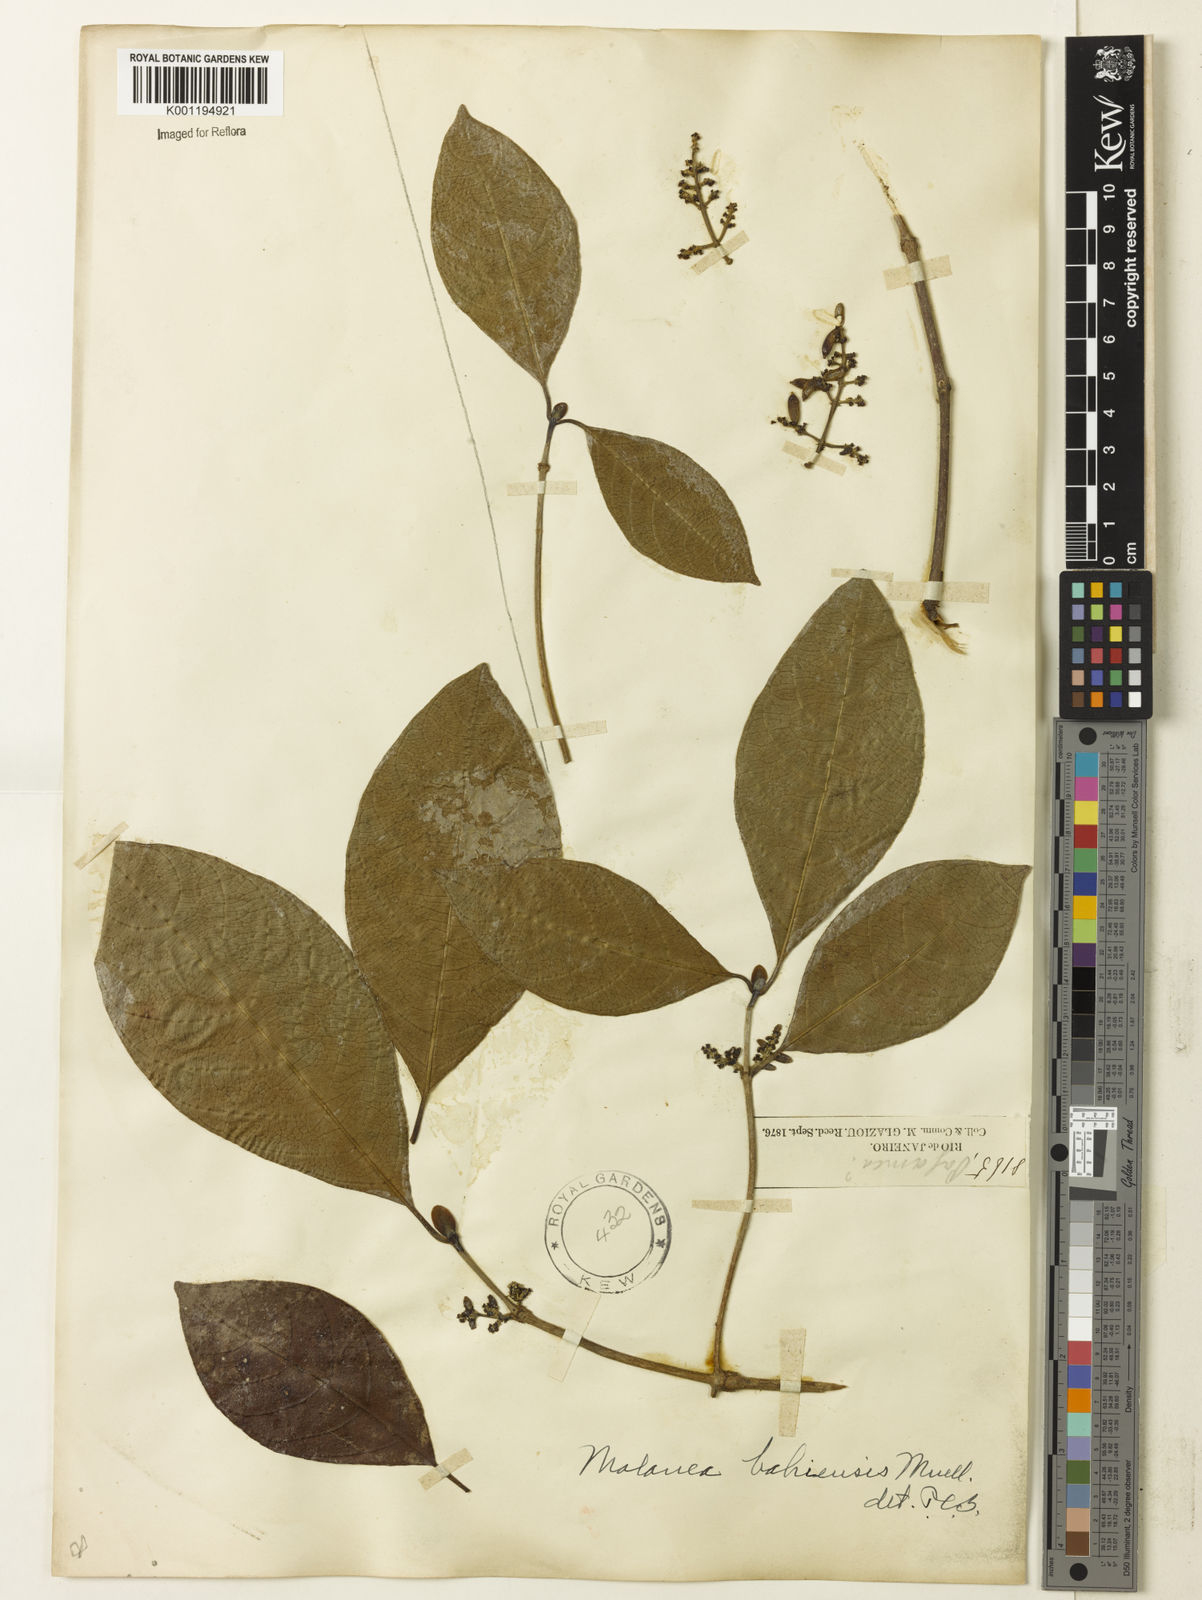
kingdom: Plantae
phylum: Tracheophyta
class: Magnoliopsida
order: Gentianales
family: Rubiaceae
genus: Malanea
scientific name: Malanea glabra
